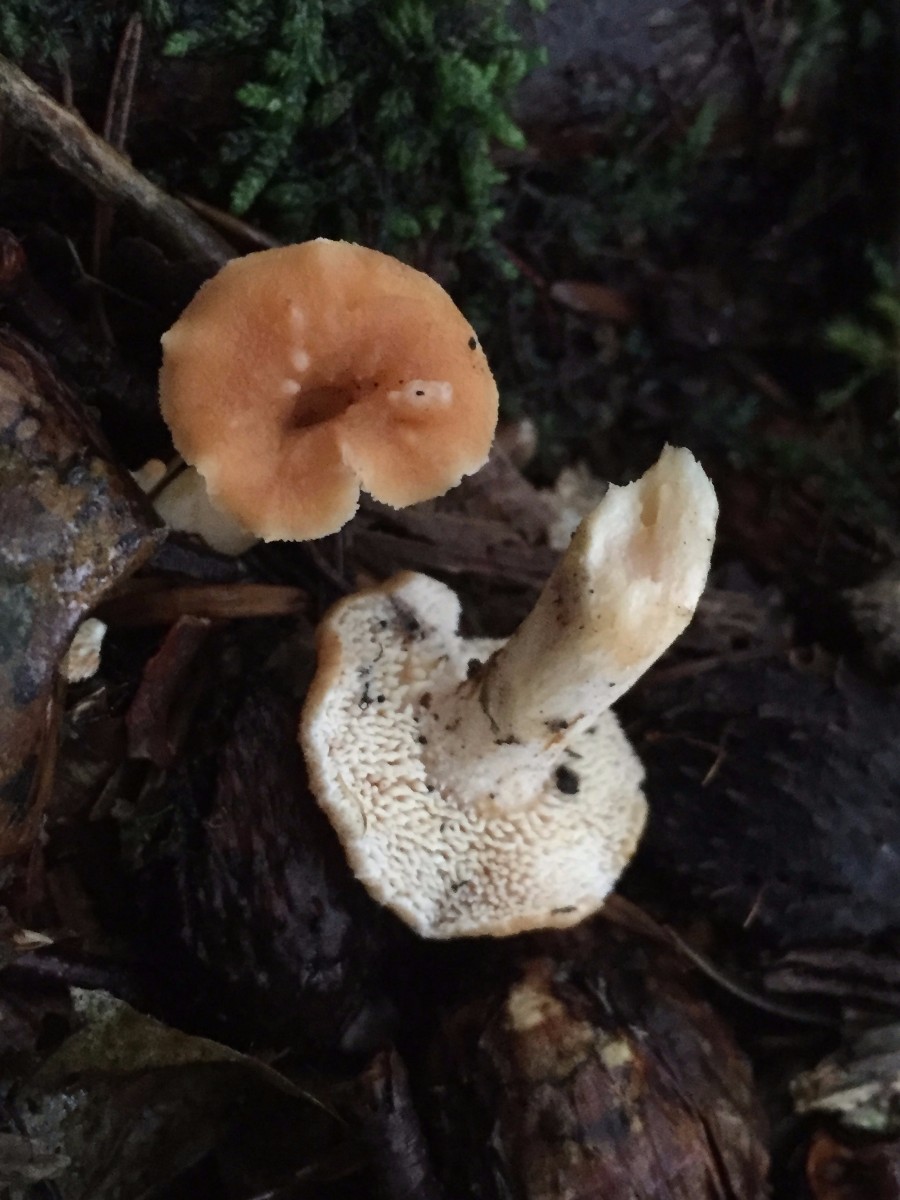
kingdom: Fungi
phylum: Basidiomycota
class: Agaricomycetes
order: Cantharellales
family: Hydnaceae
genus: Hydnum
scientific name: Hydnum
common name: pigsvamp
